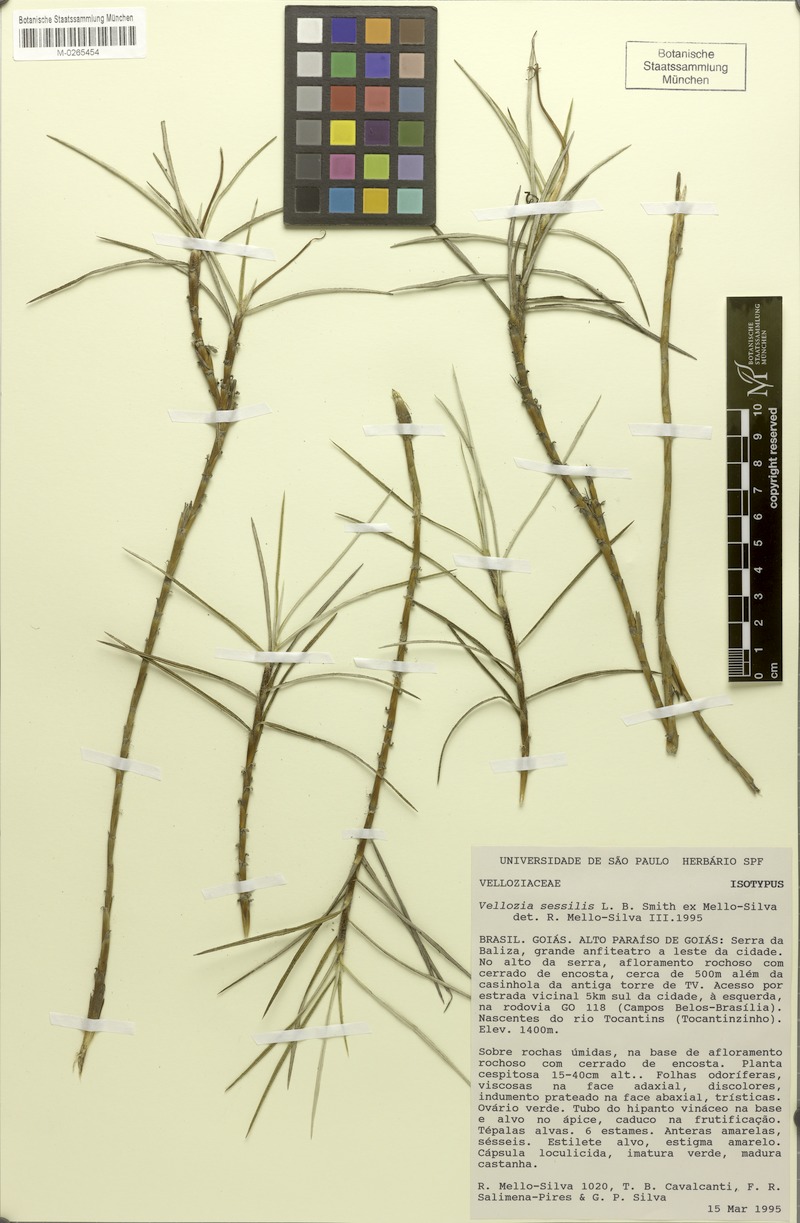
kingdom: Plantae
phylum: Tracheophyta
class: Liliopsida
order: Pandanales
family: Velloziaceae
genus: Vellozia
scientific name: Vellozia sessilis
